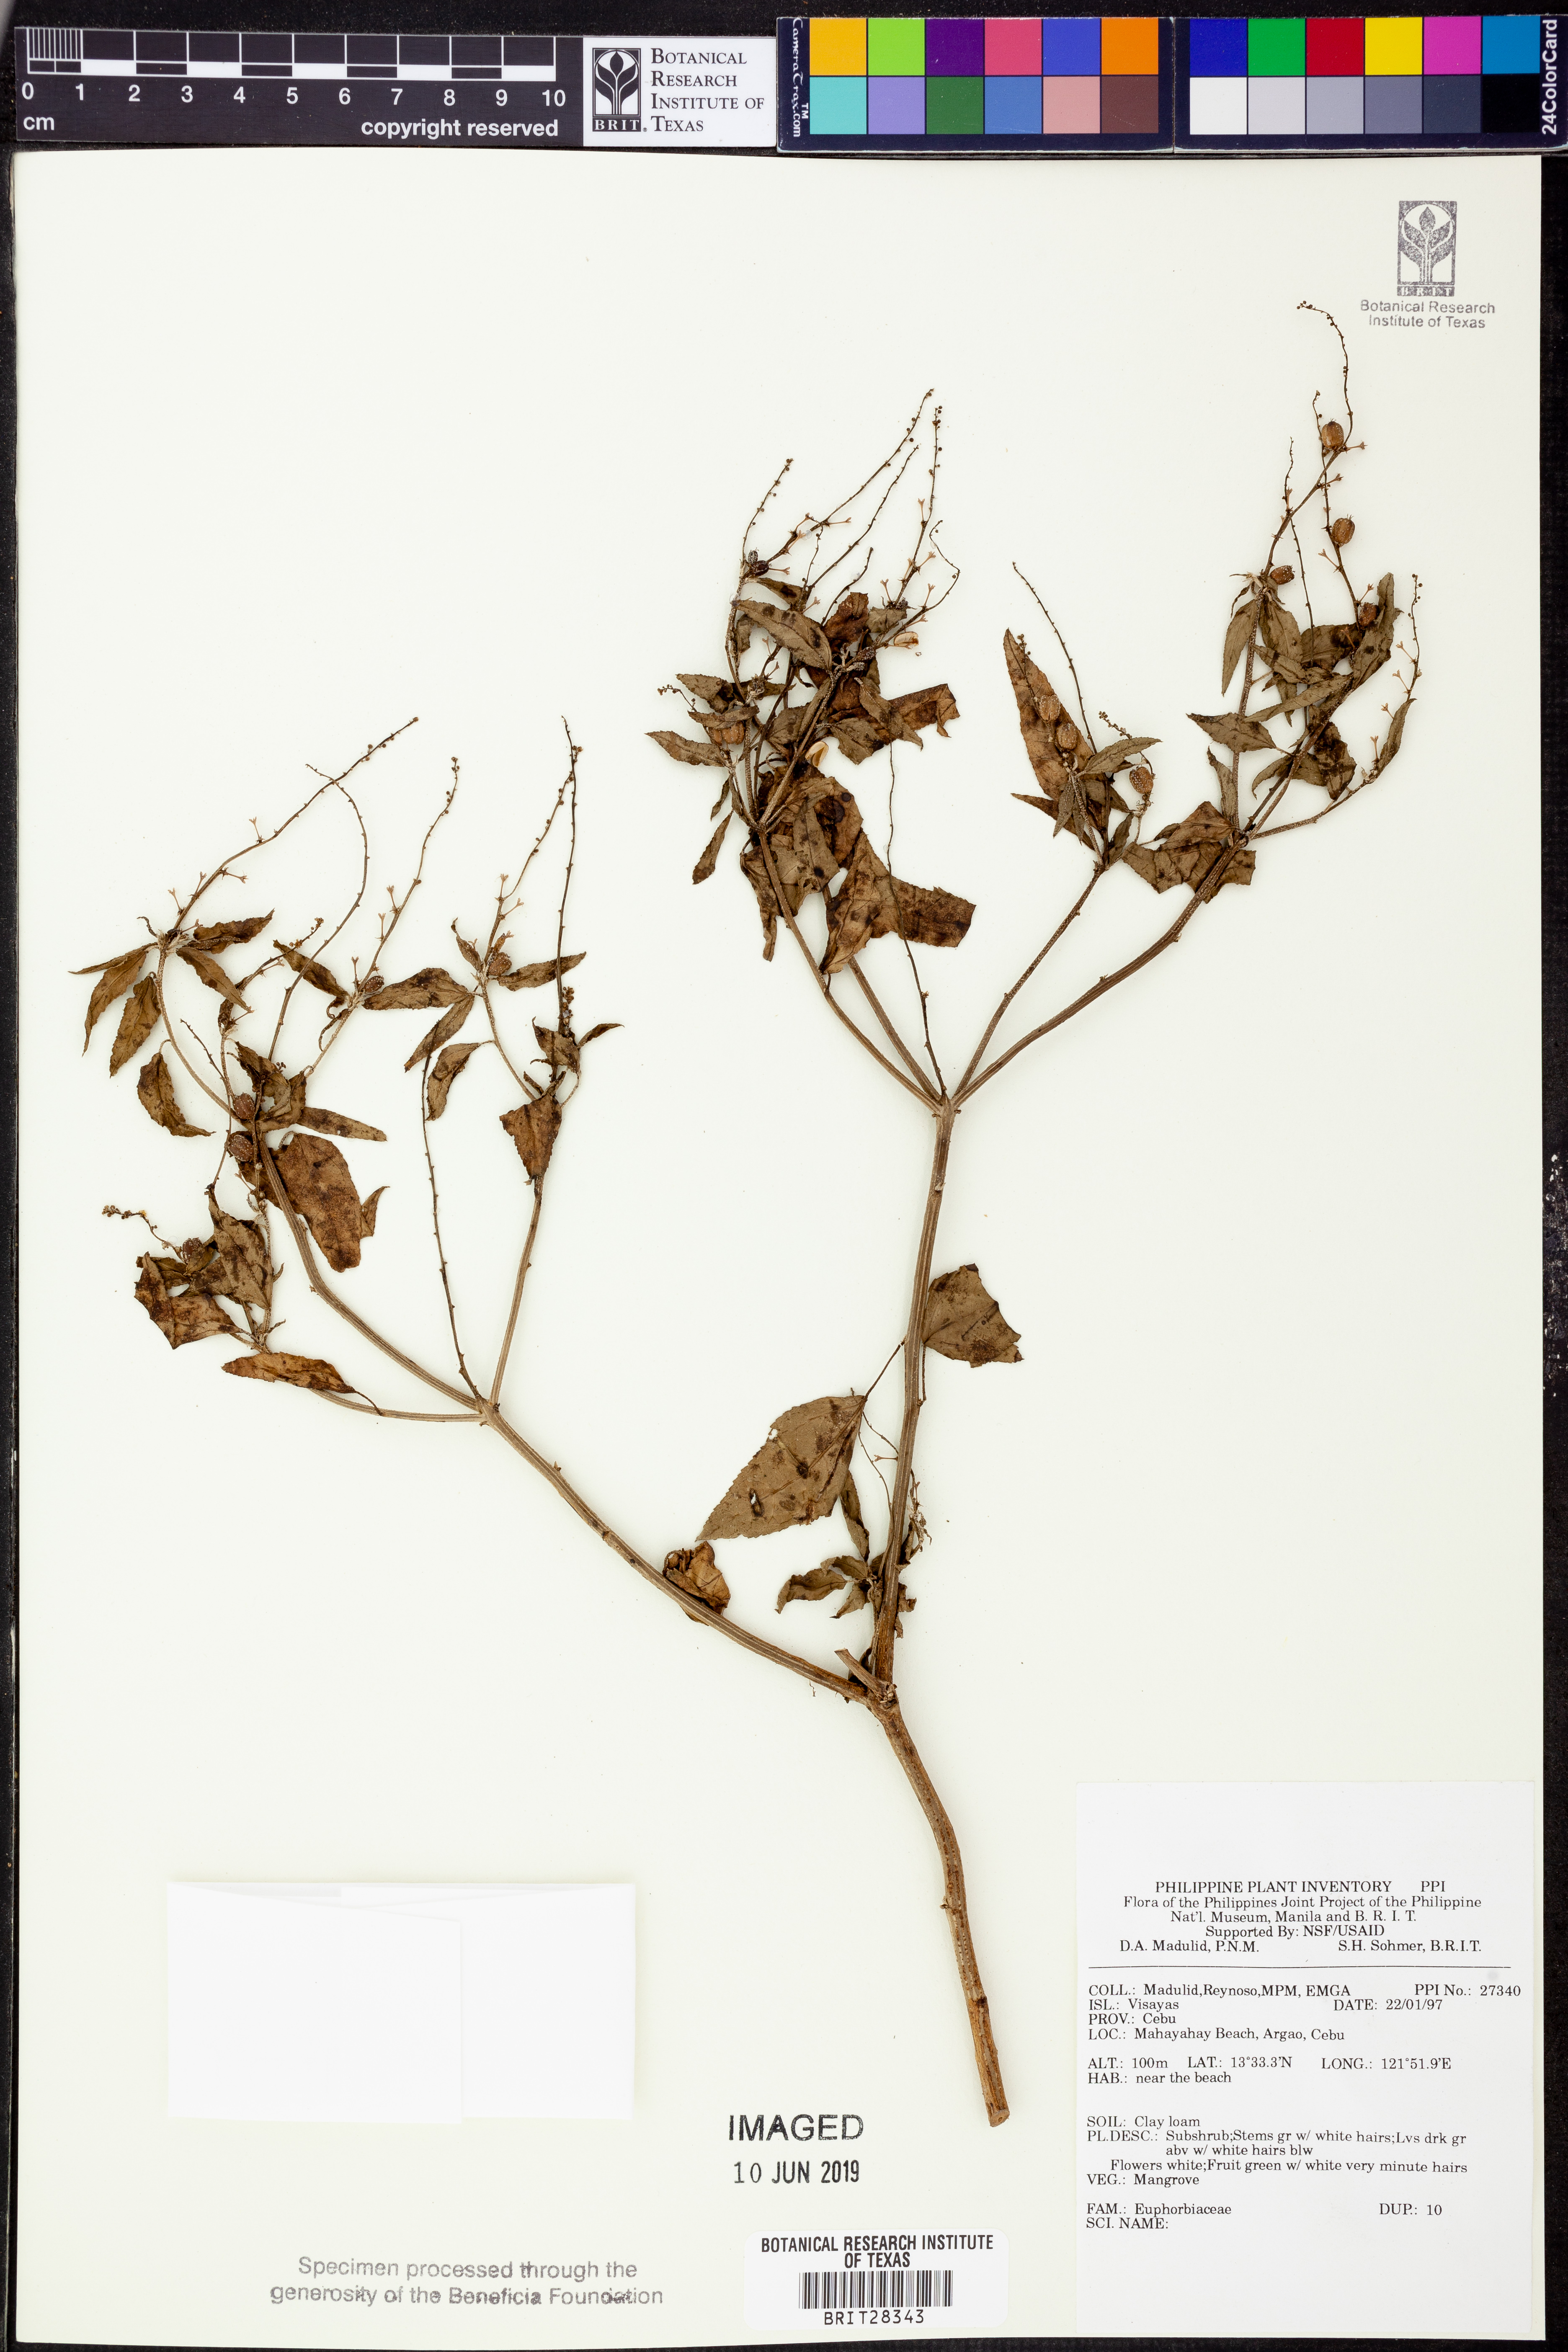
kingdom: Plantae
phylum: Tracheophyta
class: Magnoliopsida
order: Malpighiales
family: Euphorbiaceae
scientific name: Euphorbiaceae
